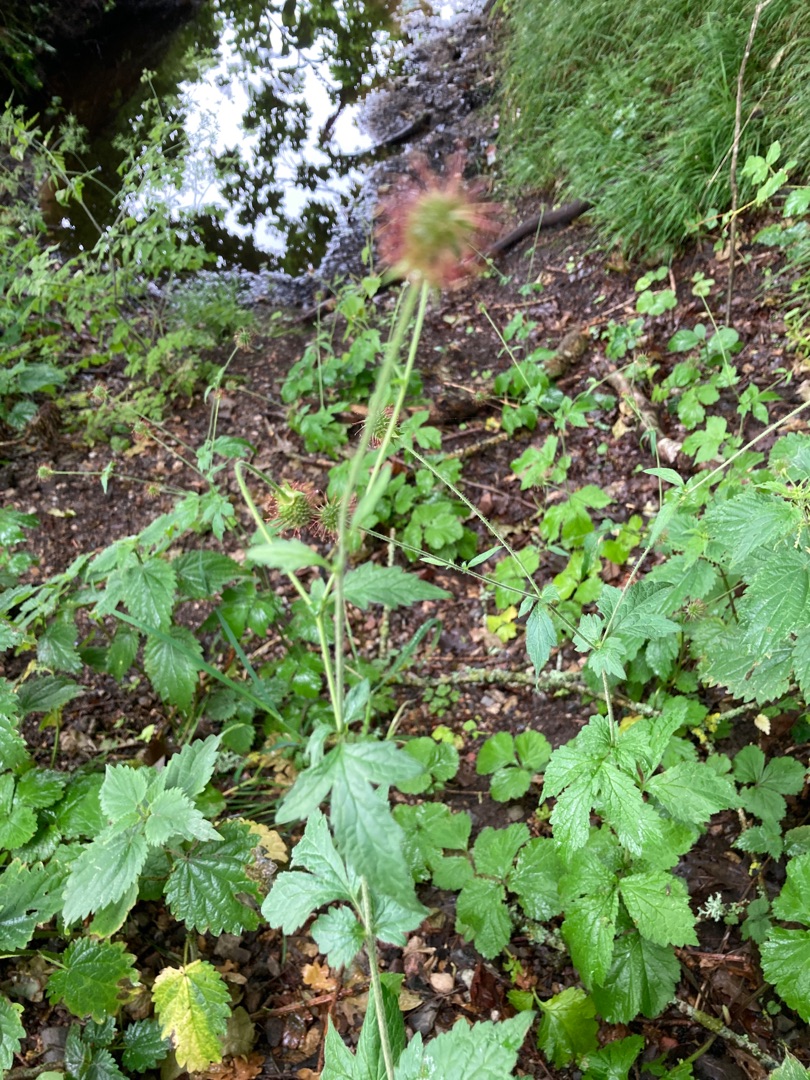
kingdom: Plantae
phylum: Tracheophyta
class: Magnoliopsida
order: Rosales
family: Rosaceae
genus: Geum
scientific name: Geum urbanum
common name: Feber-nellikerod
